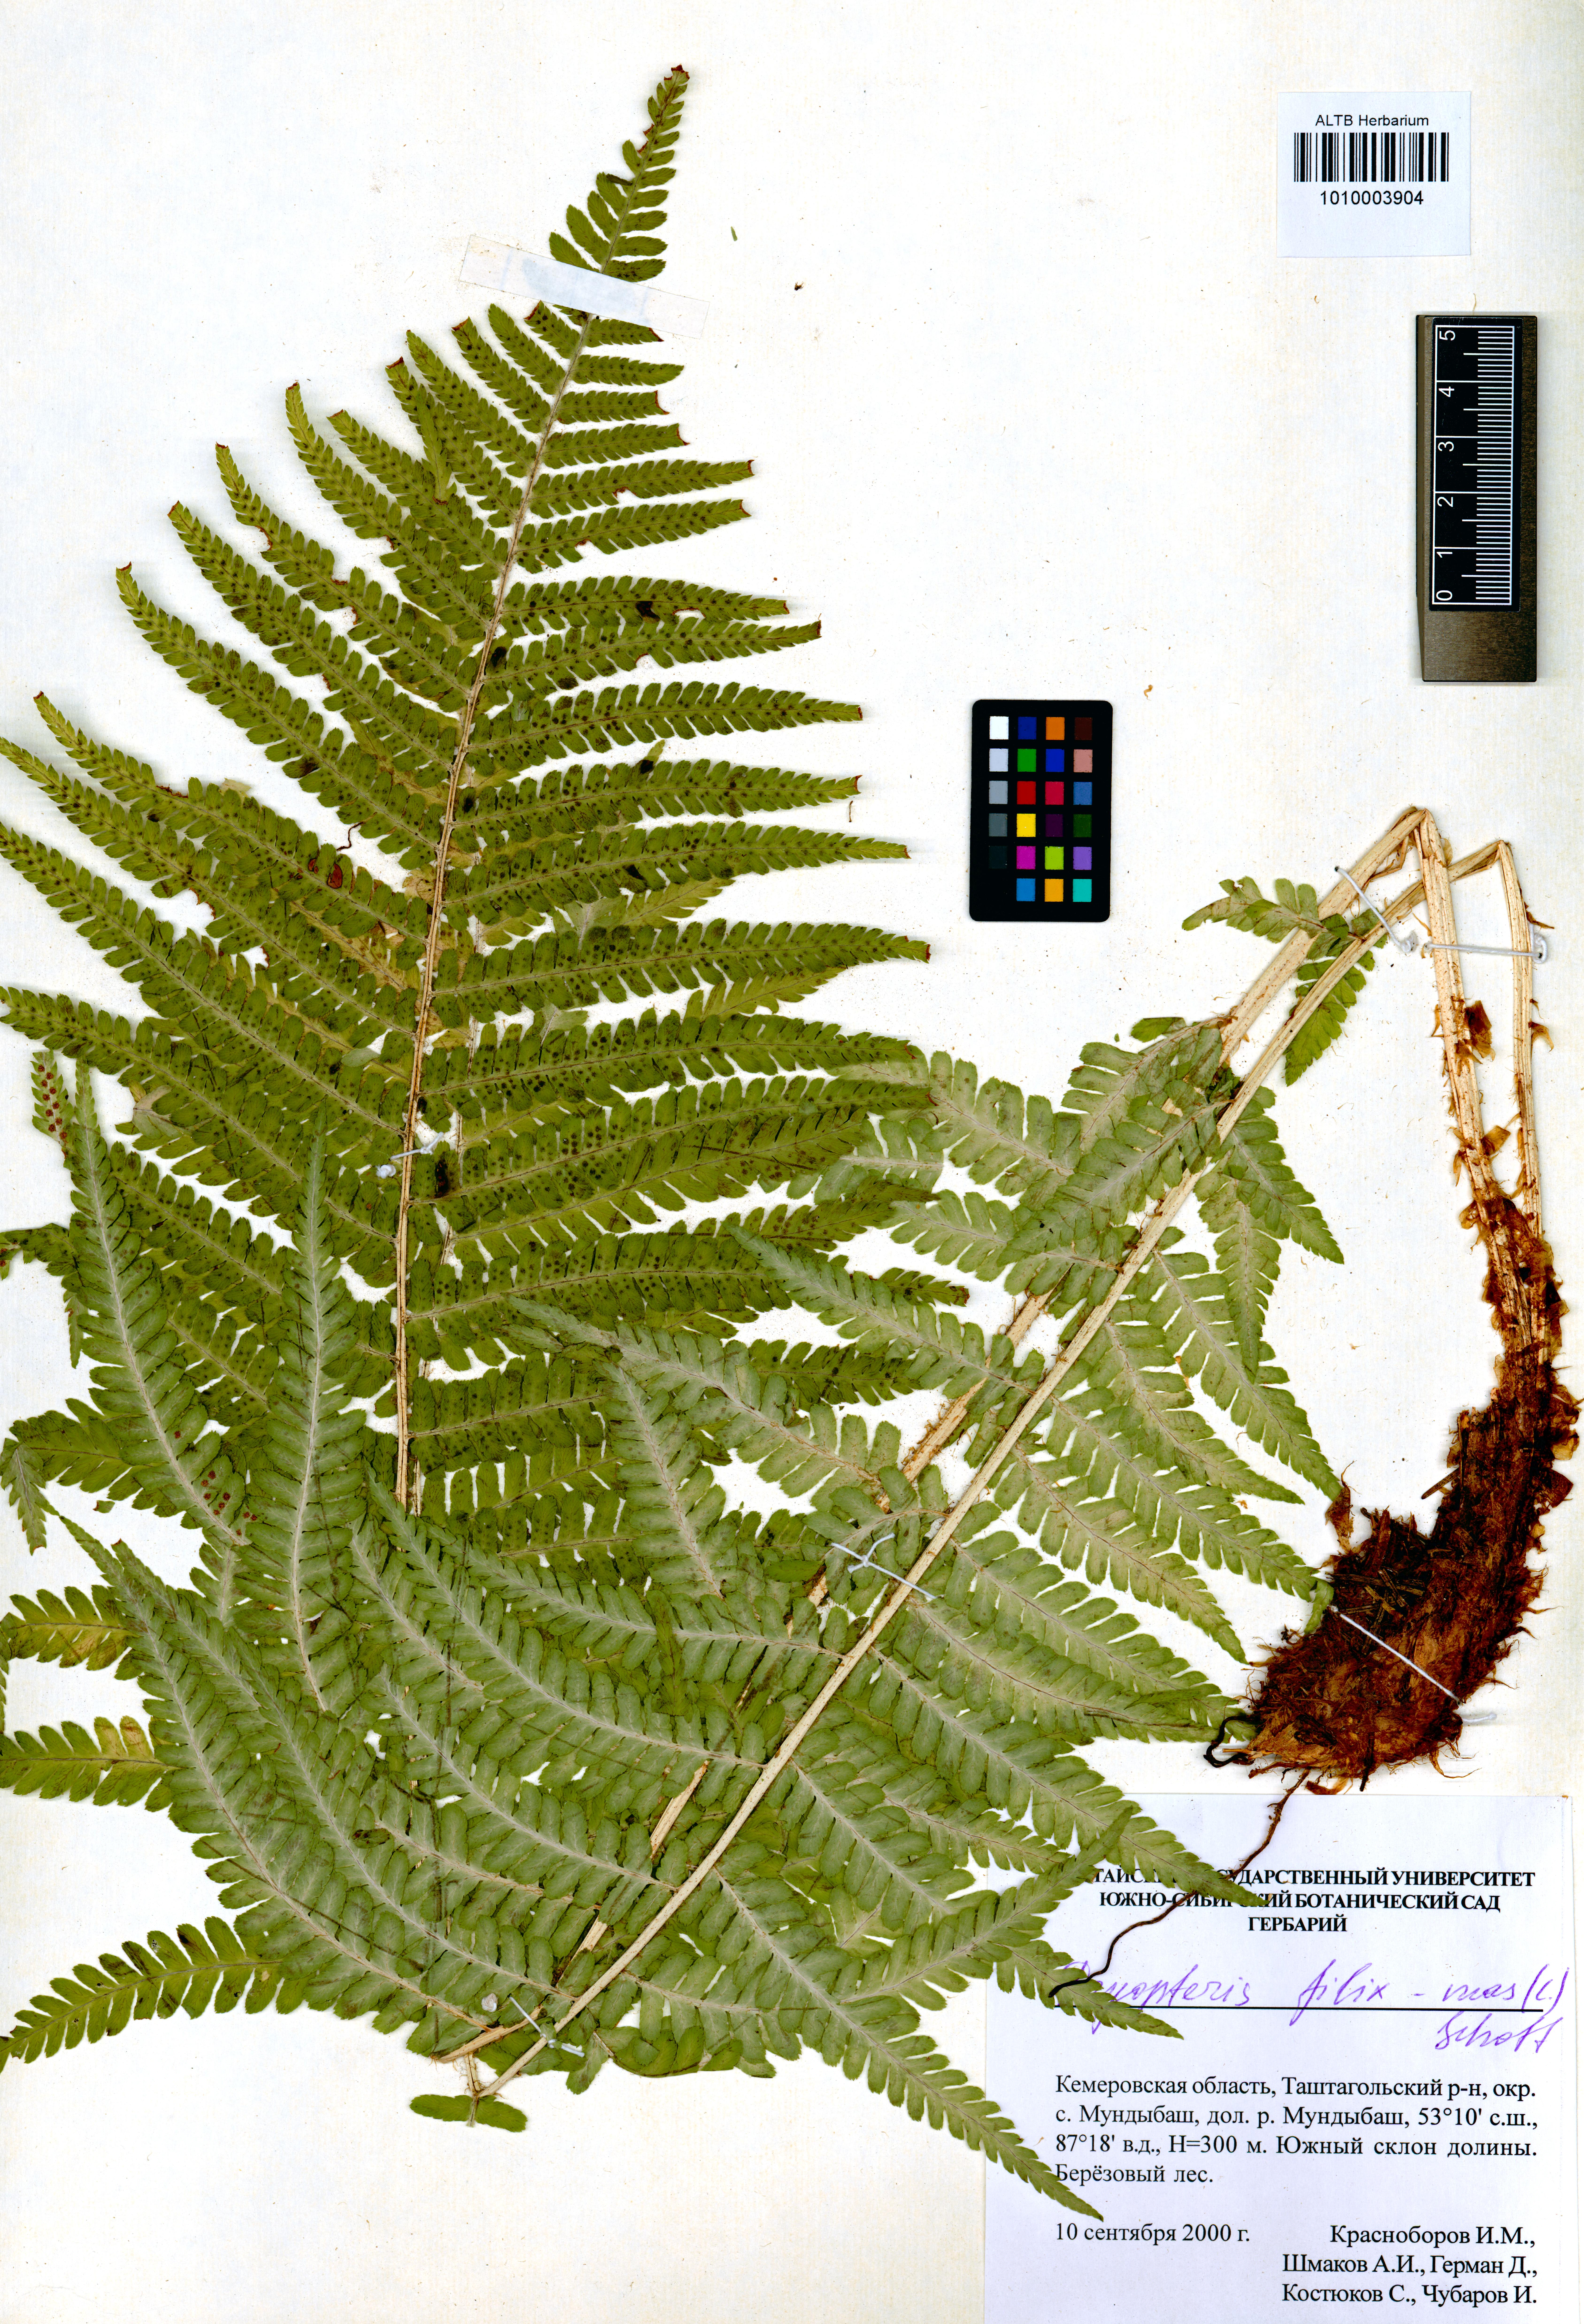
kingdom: Plantae
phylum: Tracheophyta
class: Polypodiopsida
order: Polypodiales
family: Dryopteridaceae
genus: Dryopteris
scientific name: Dryopteris filix-mas
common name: Male fern
